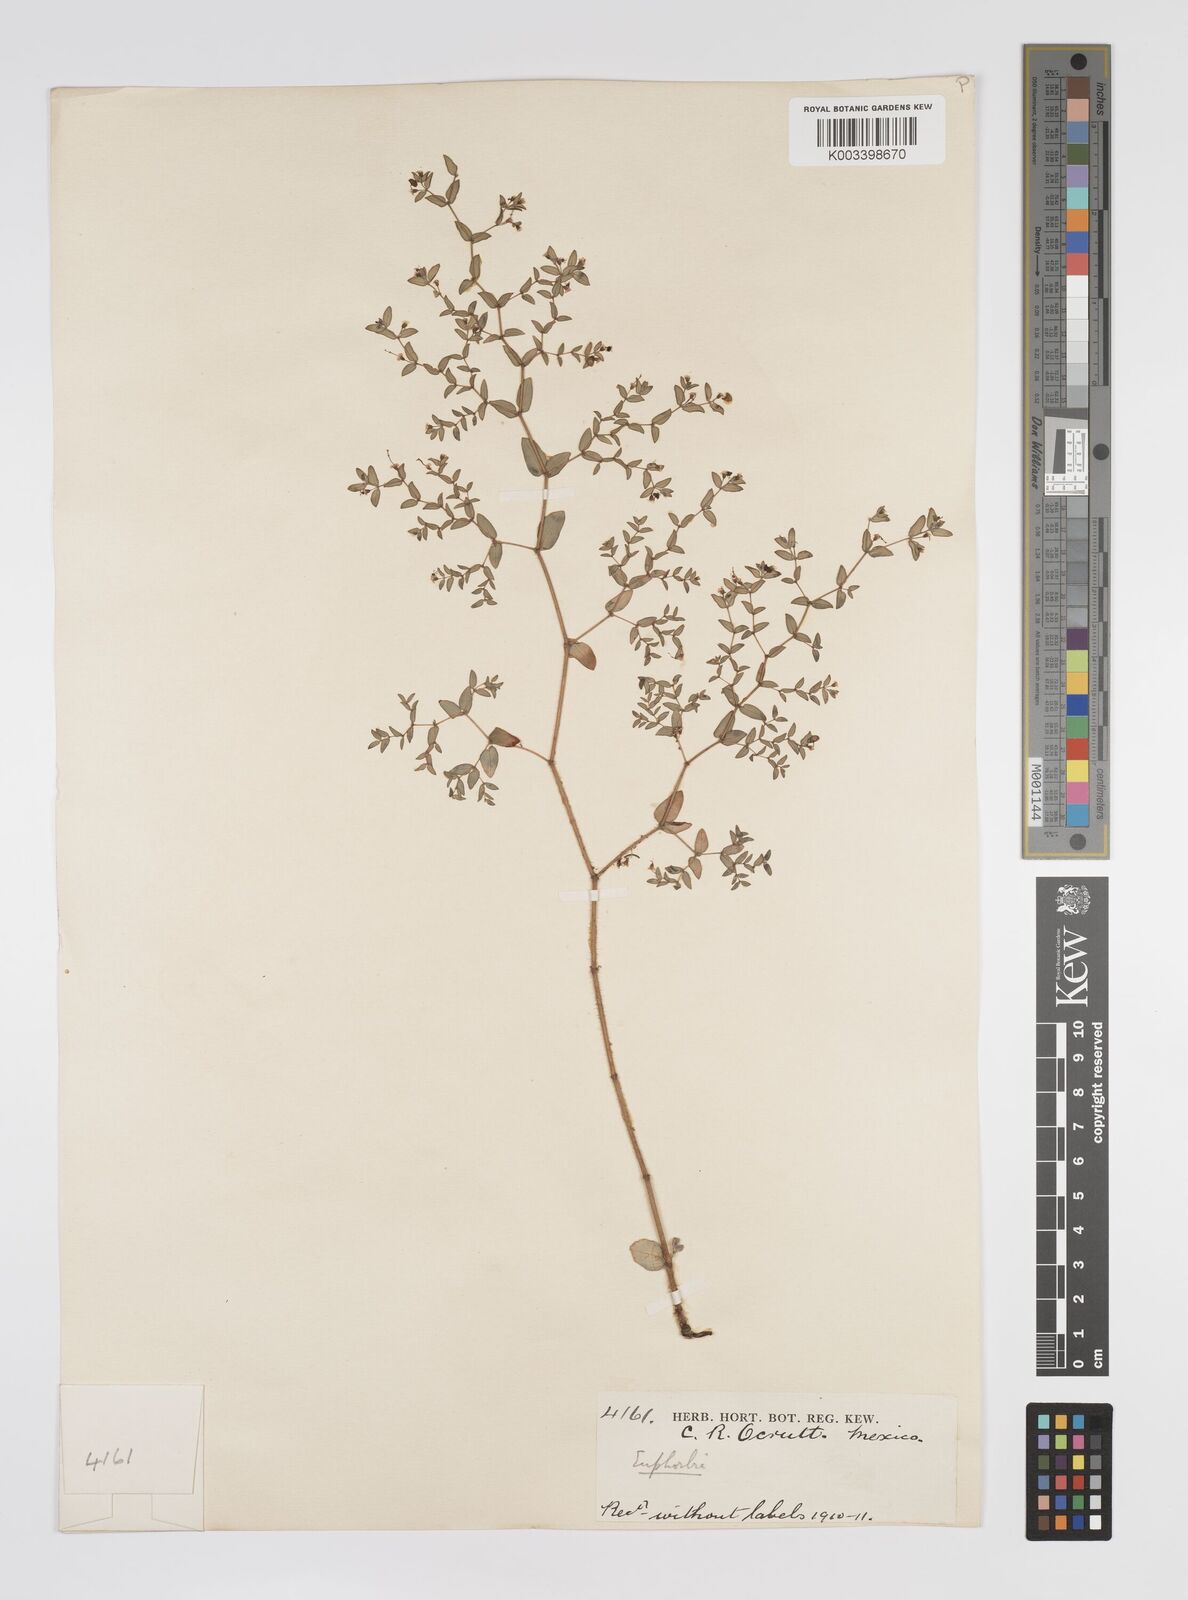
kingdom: Plantae
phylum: Tracheophyta
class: Magnoliopsida
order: Malpighiales
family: Euphorbiaceae
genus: Euphorbia
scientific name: Euphorbia
